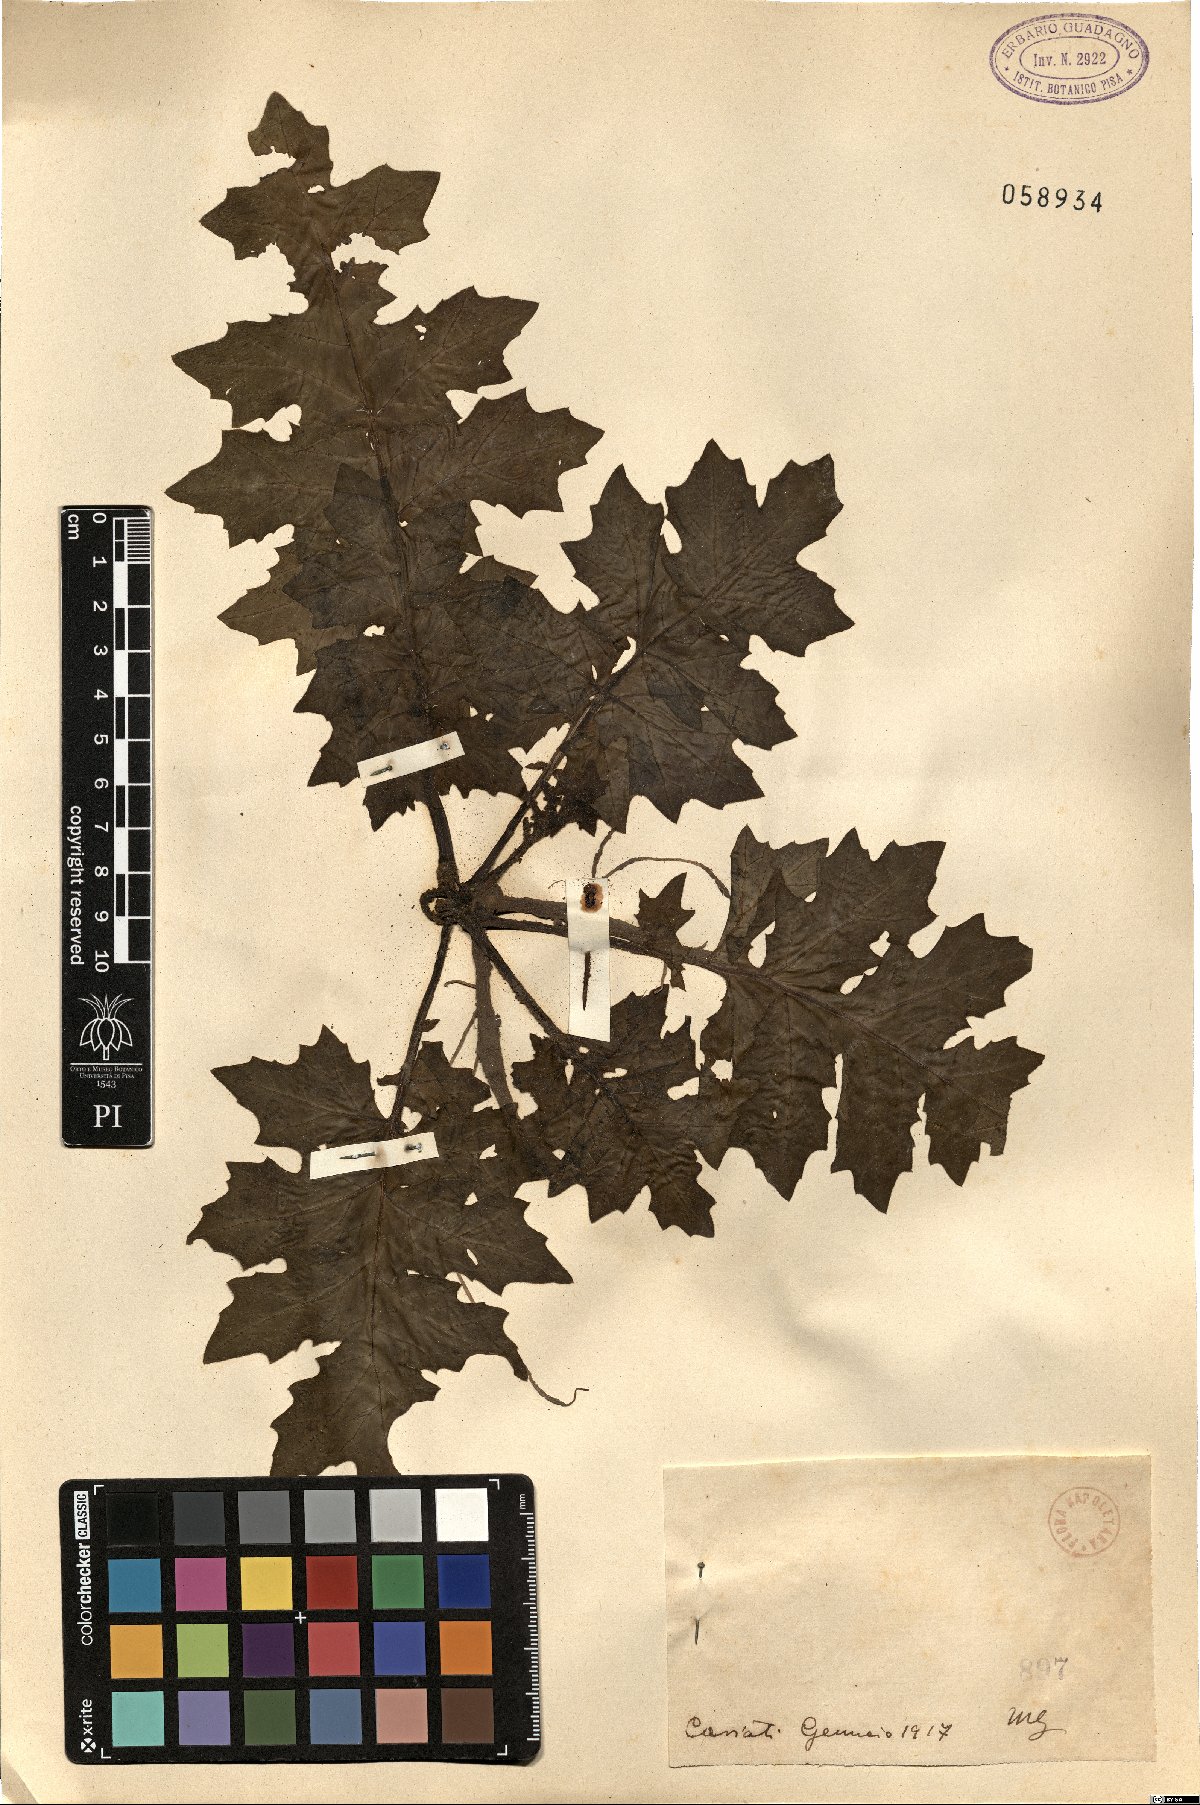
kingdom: Plantae
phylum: Tracheophyta
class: Magnoliopsida
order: Lamiales
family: Acanthaceae
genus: Acanthus
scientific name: Acanthus
